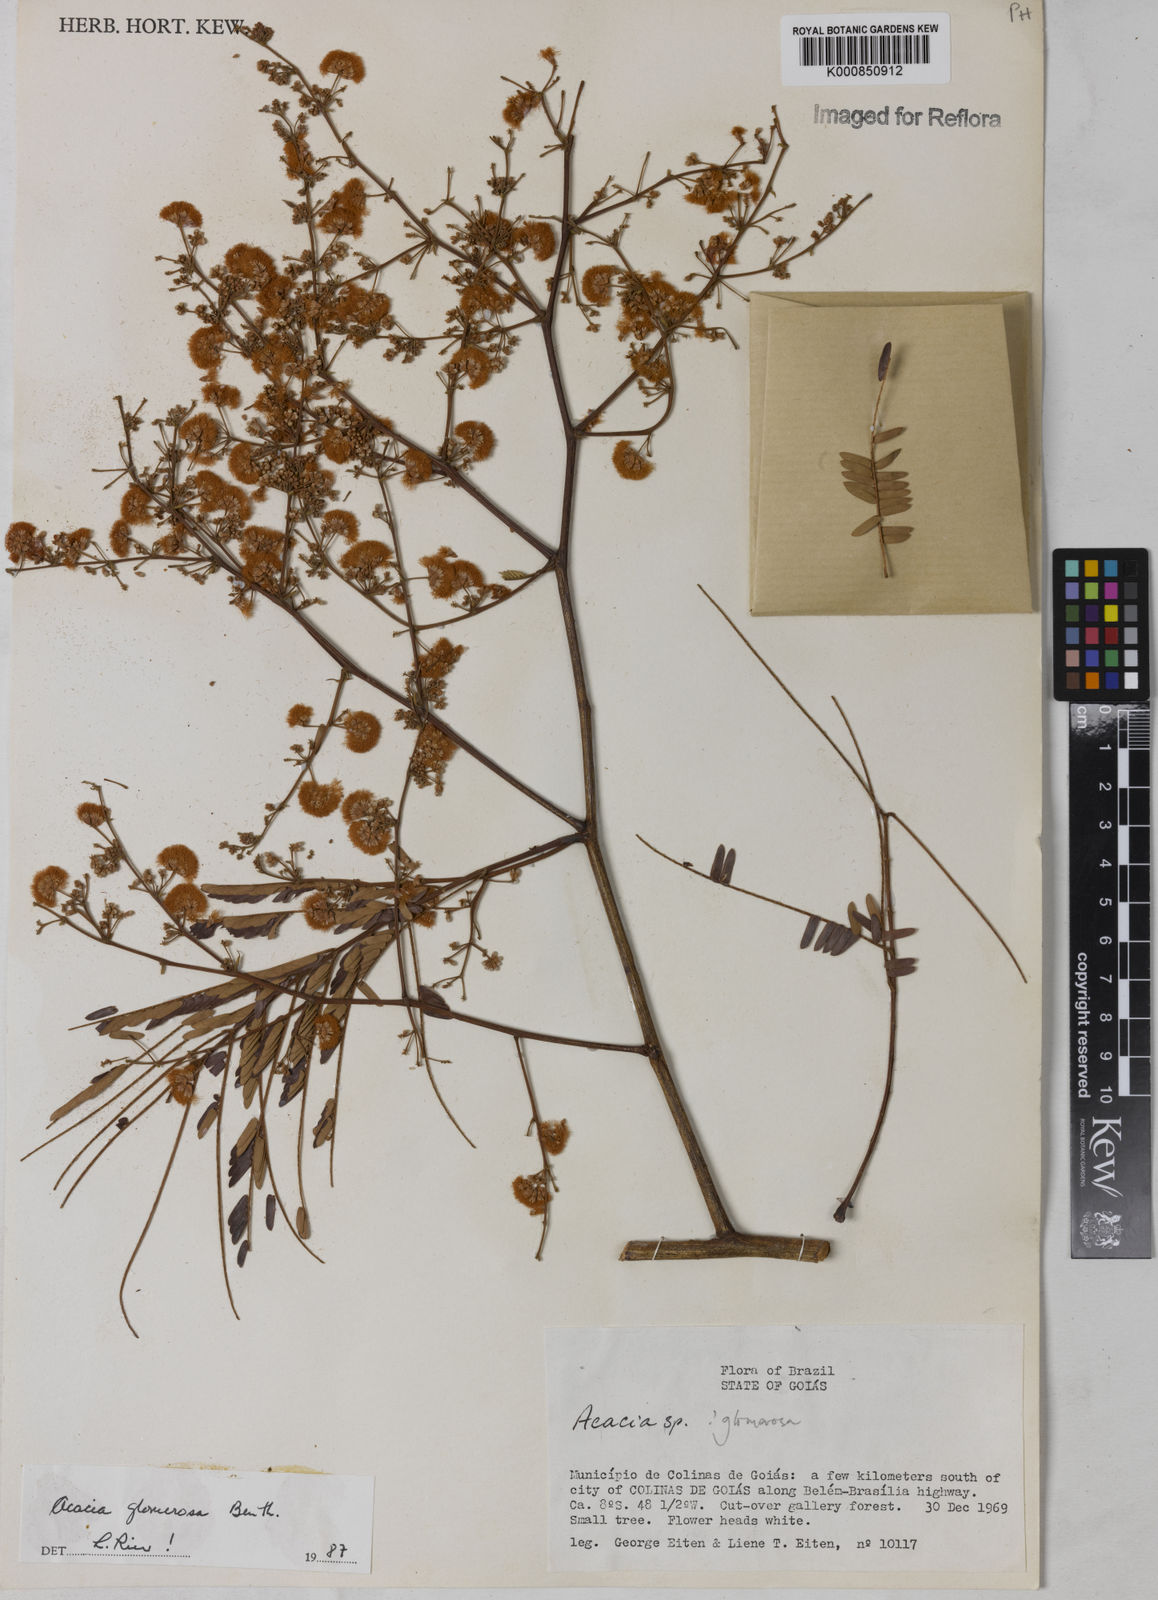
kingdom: Plantae
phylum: Tracheophyta
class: Magnoliopsida
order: Fabales
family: Fabaceae
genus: Senegalia
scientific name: Senegalia polyphylla
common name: White-tamarind
